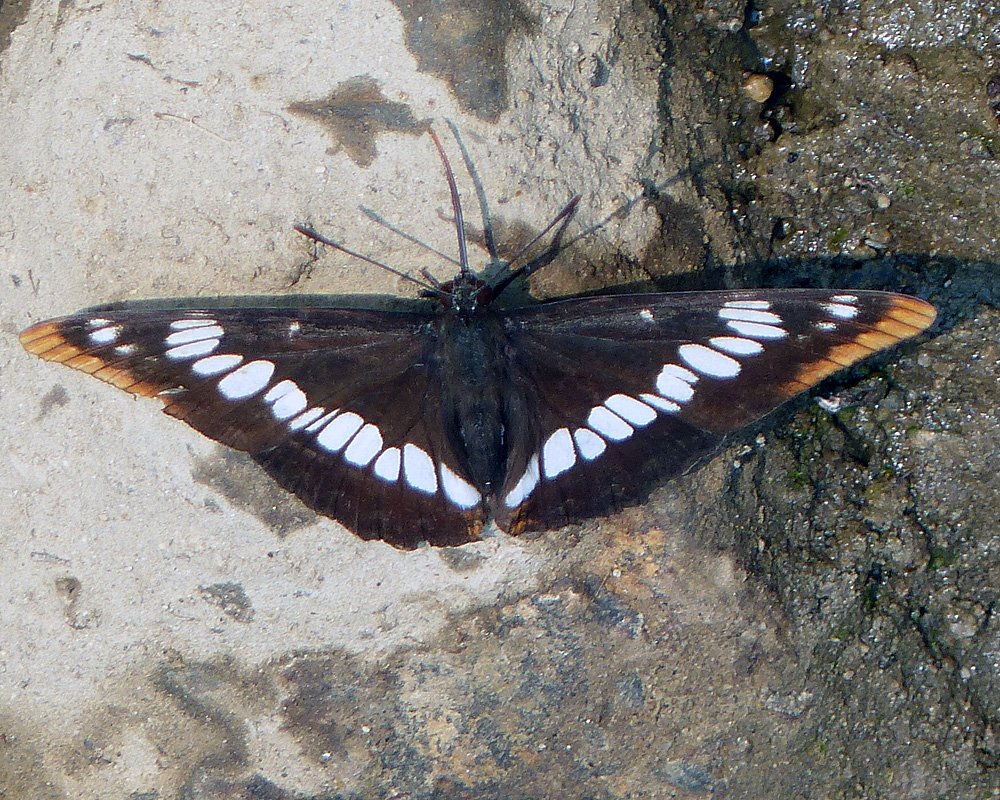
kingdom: Animalia
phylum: Arthropoda
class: Insecta
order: Lepidoptera
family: Nymphalidae
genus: Limenitis
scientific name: Limenitis lorquini
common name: Lorquin's Admiral
